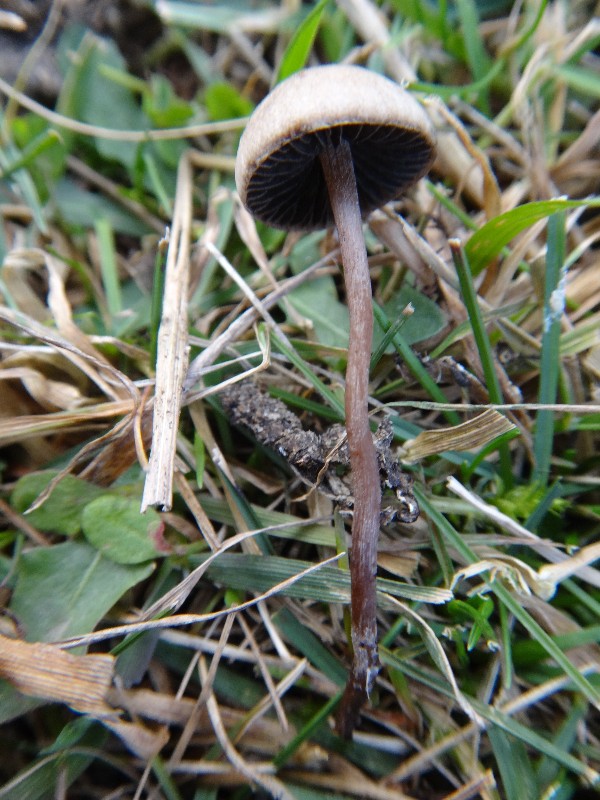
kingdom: Fungi
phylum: Basidiomycota
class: Agaricomycetes
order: Agaricales
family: Bolbitiaceae
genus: Panaeolus
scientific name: Panaeolus olivaceus
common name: lysstokket glanshat
